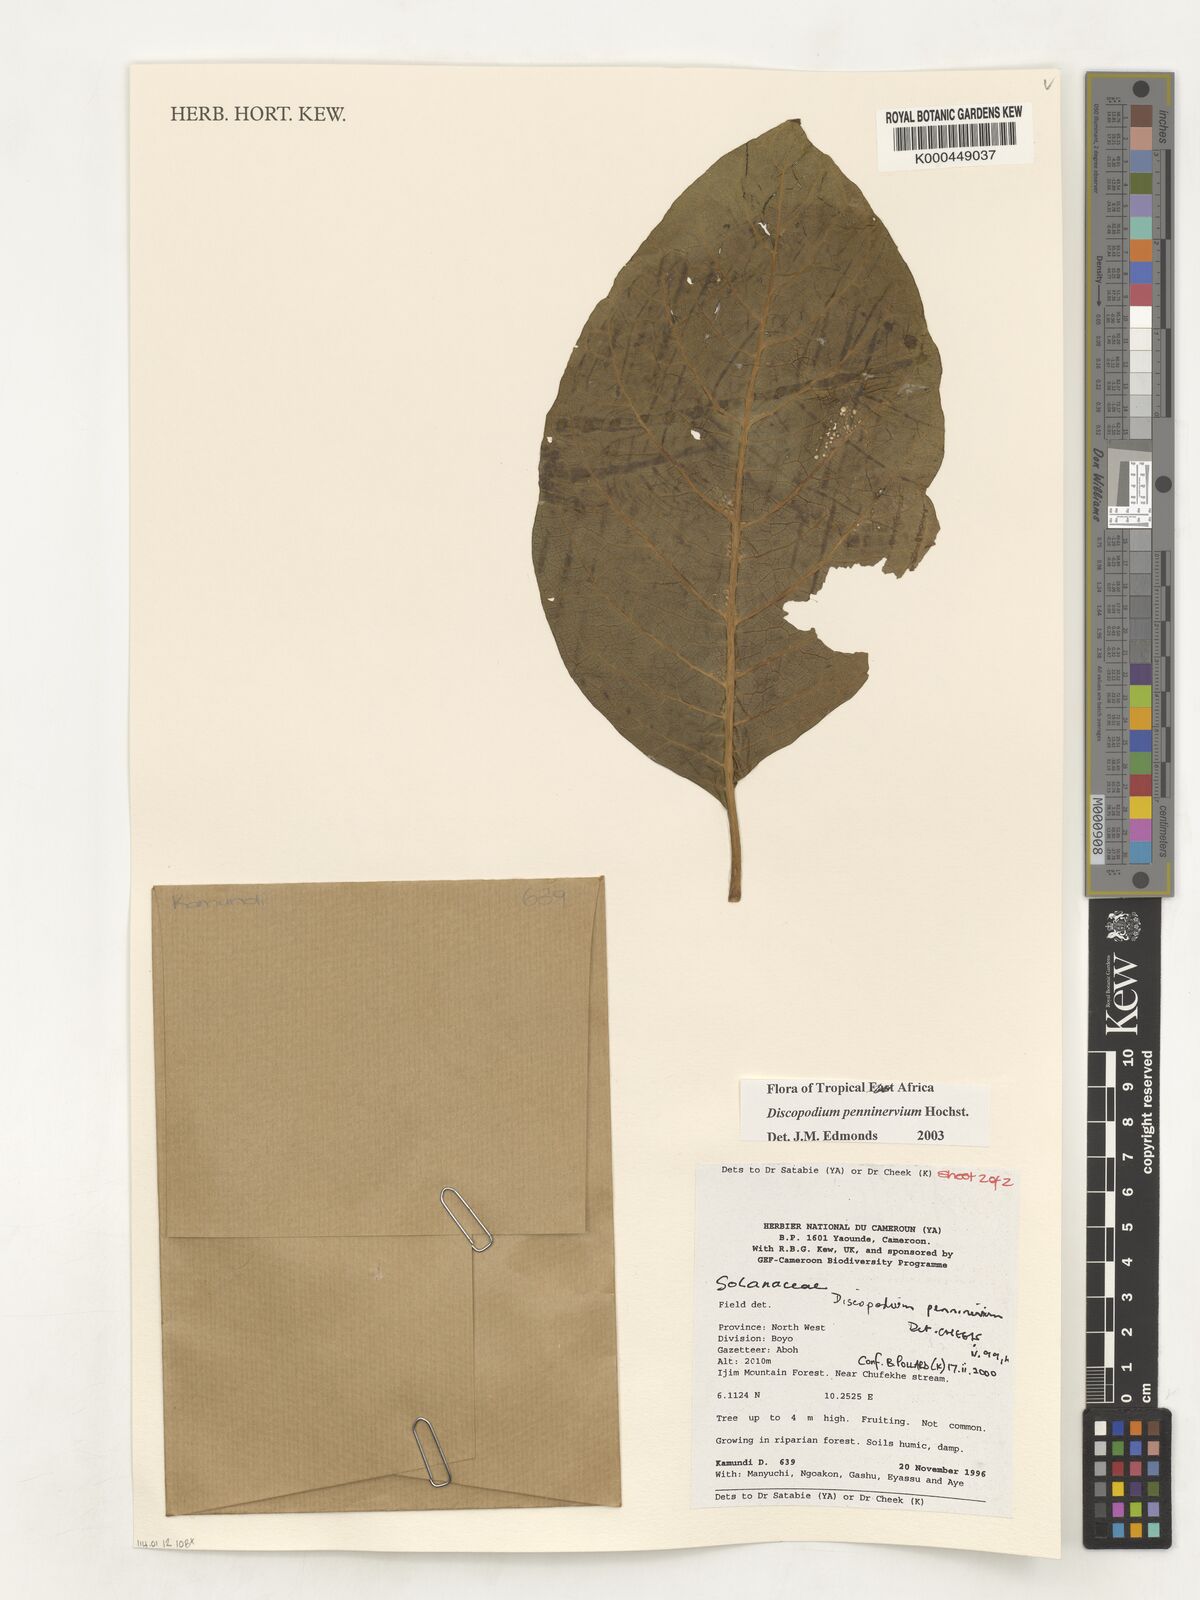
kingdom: Plantae
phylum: Tracheophyta
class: Magnoliopsida
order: Solanales
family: Solanaceae
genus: Discopodium
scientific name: Discopodium penninervium
